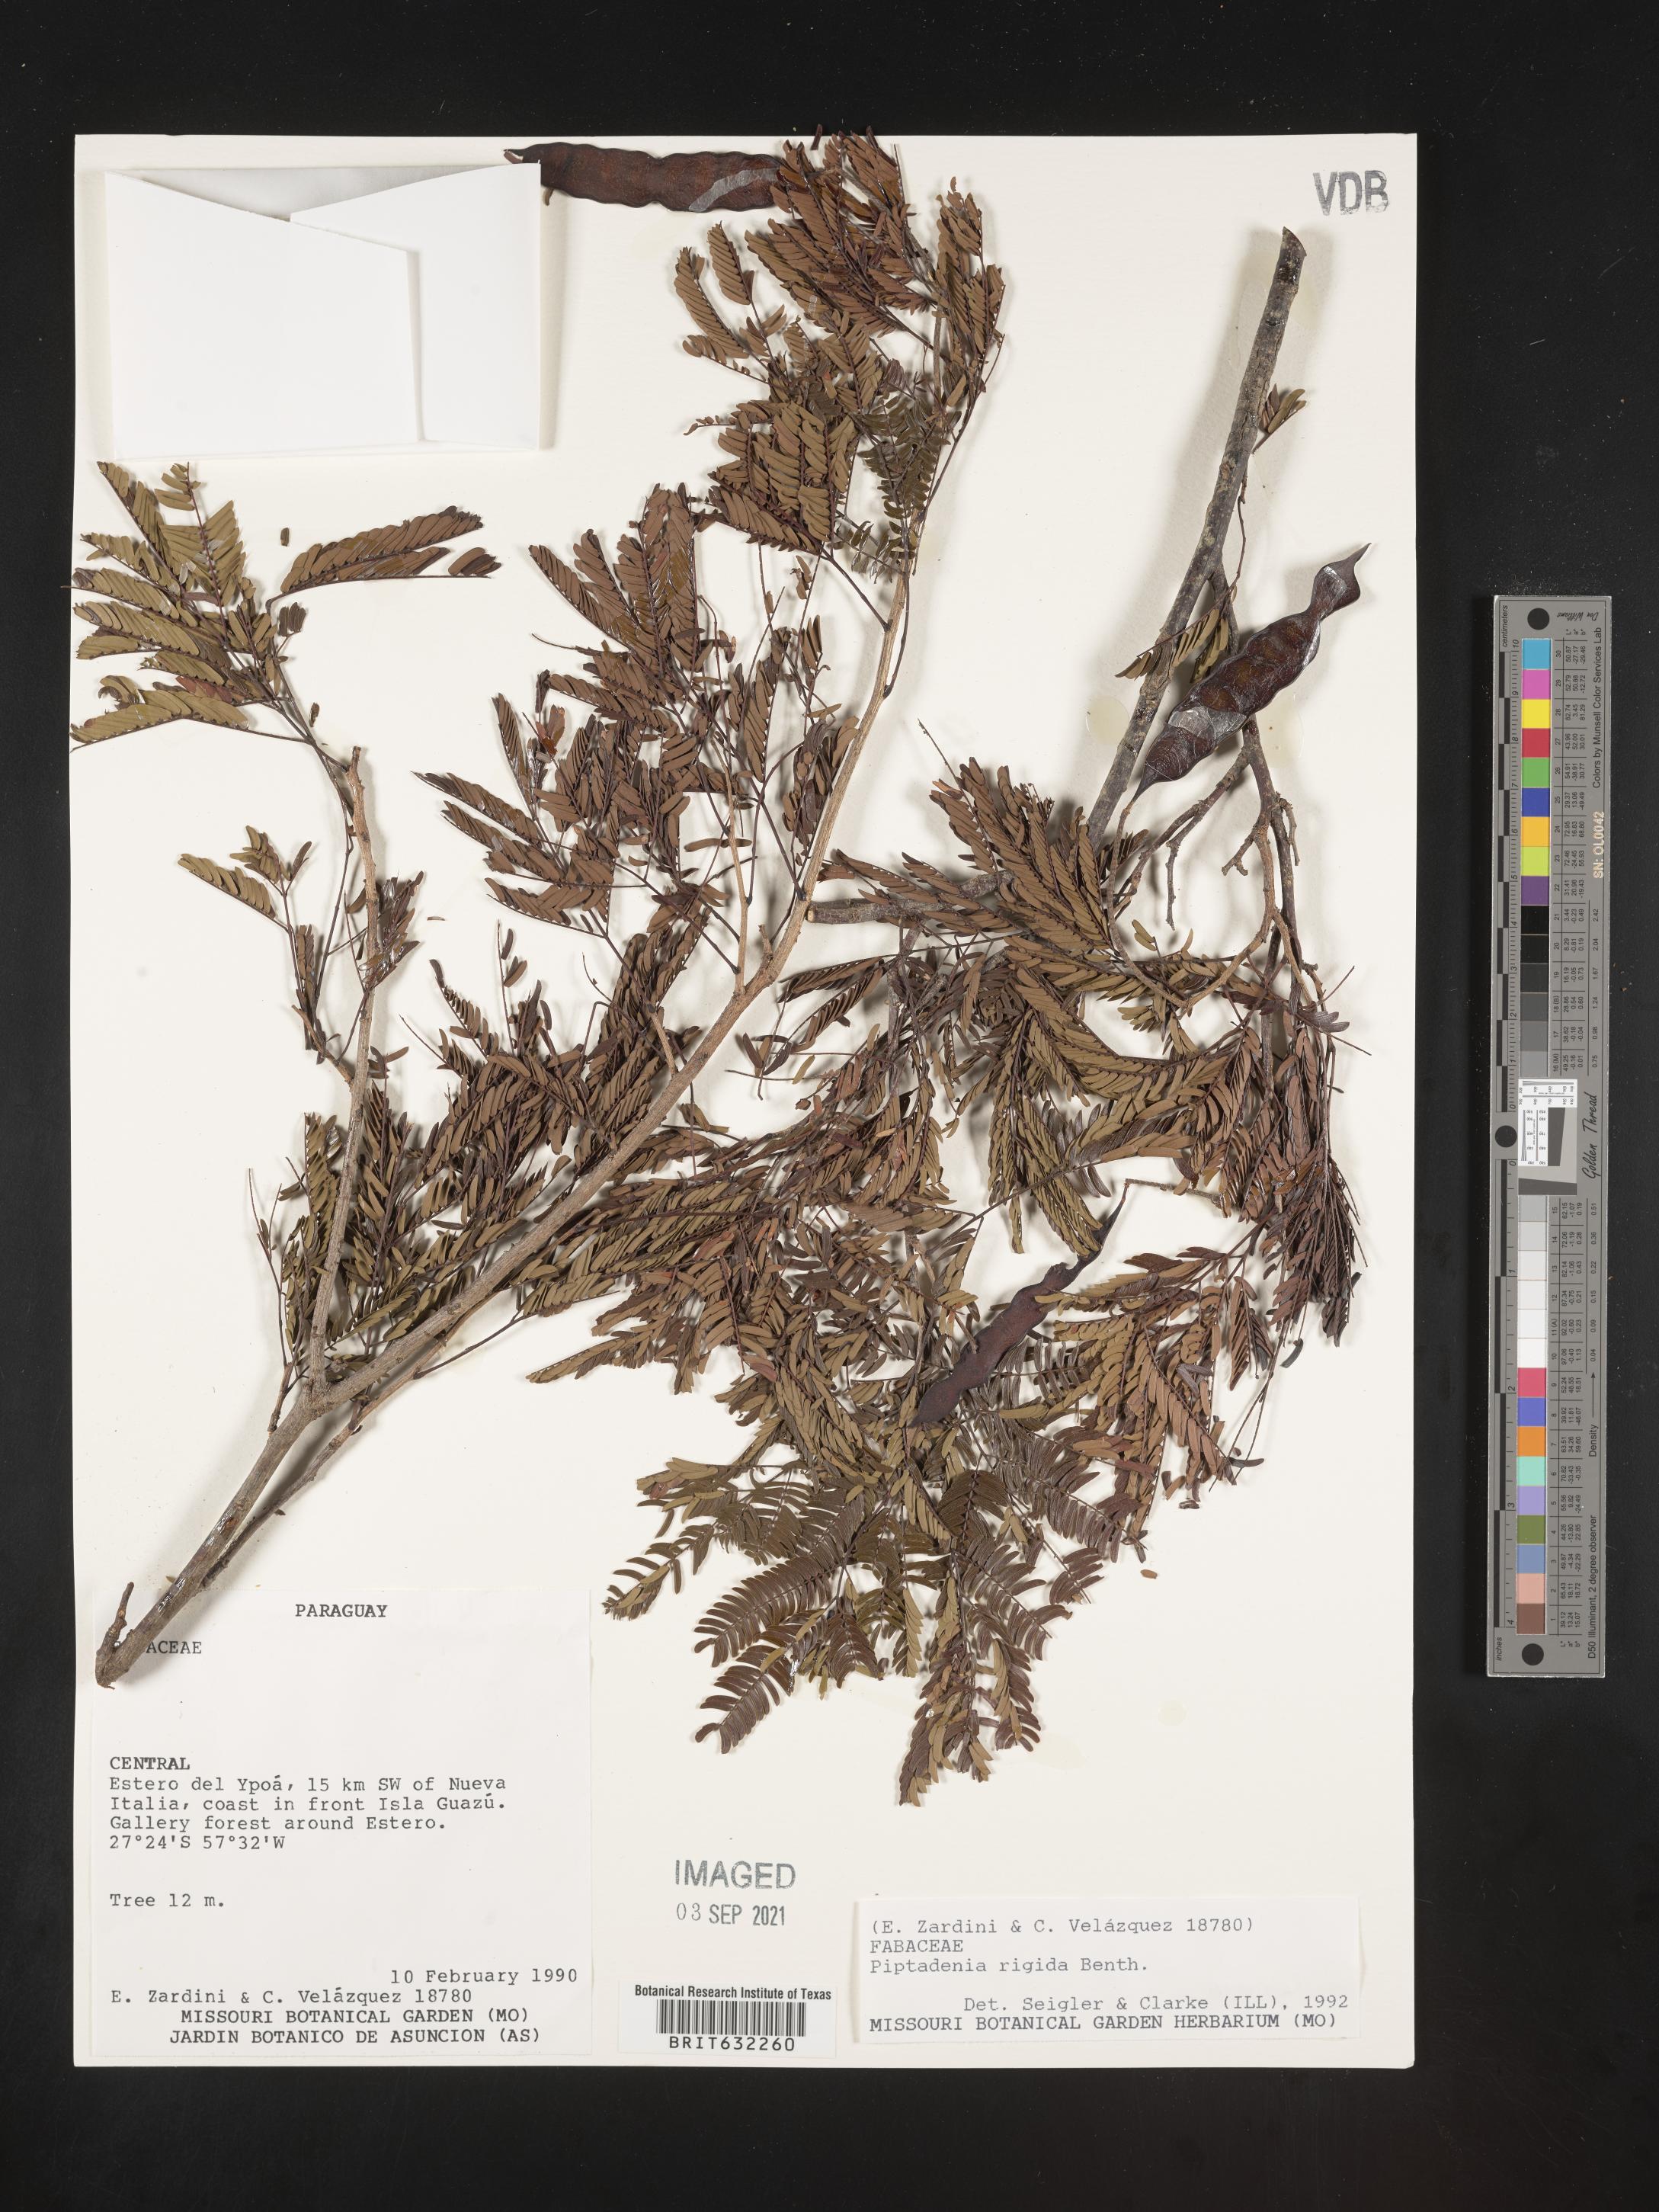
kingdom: Plantae
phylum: Tracheophyta
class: Magnoliopsida
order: Fabales
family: Fabaceae
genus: Piptadenia
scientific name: Piptadenia
